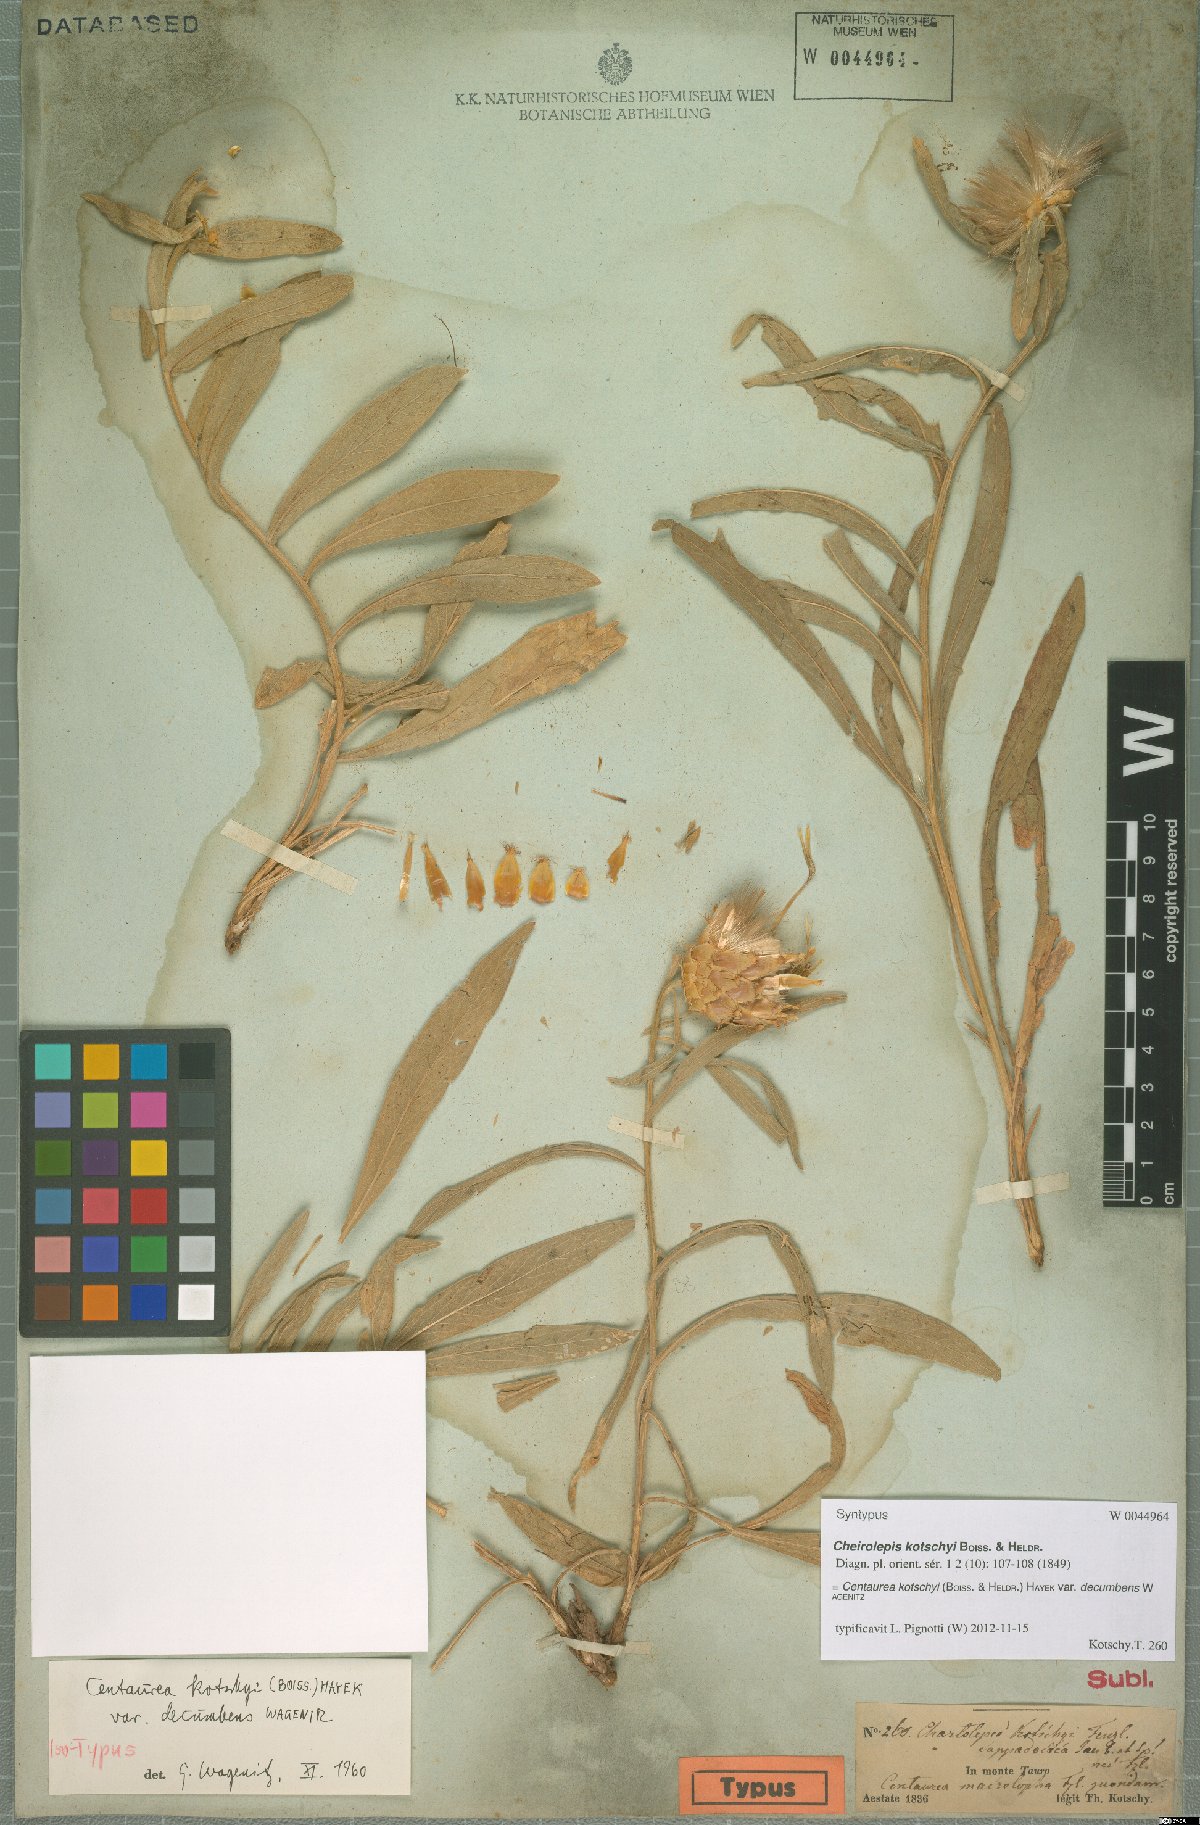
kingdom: Plantae
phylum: Tracheophyta
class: Magnoliopsida
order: Asterales
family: Asteraceae
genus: Centaurea
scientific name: Centaurea kotschyi
